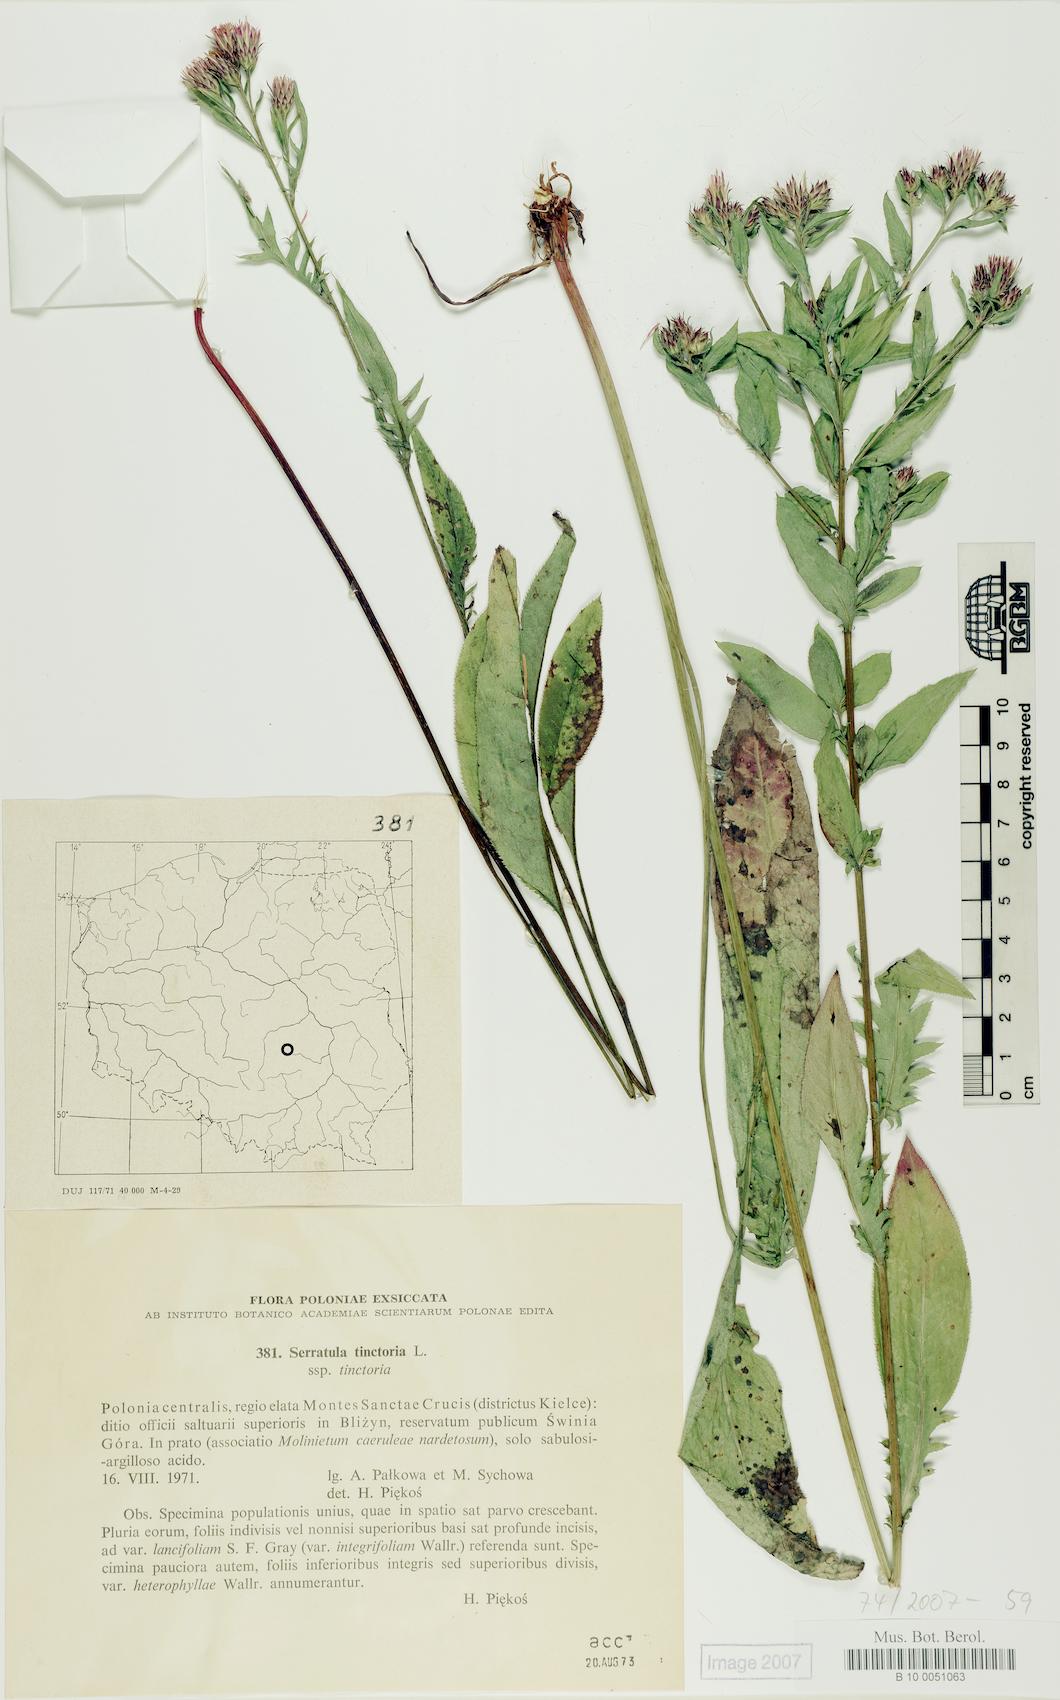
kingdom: Plantae
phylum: Tracheophyta
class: Magnoliopsida
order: Asterales
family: Asteraceae
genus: Serratula
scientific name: Serratula tinctoria
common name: Saw-wort
